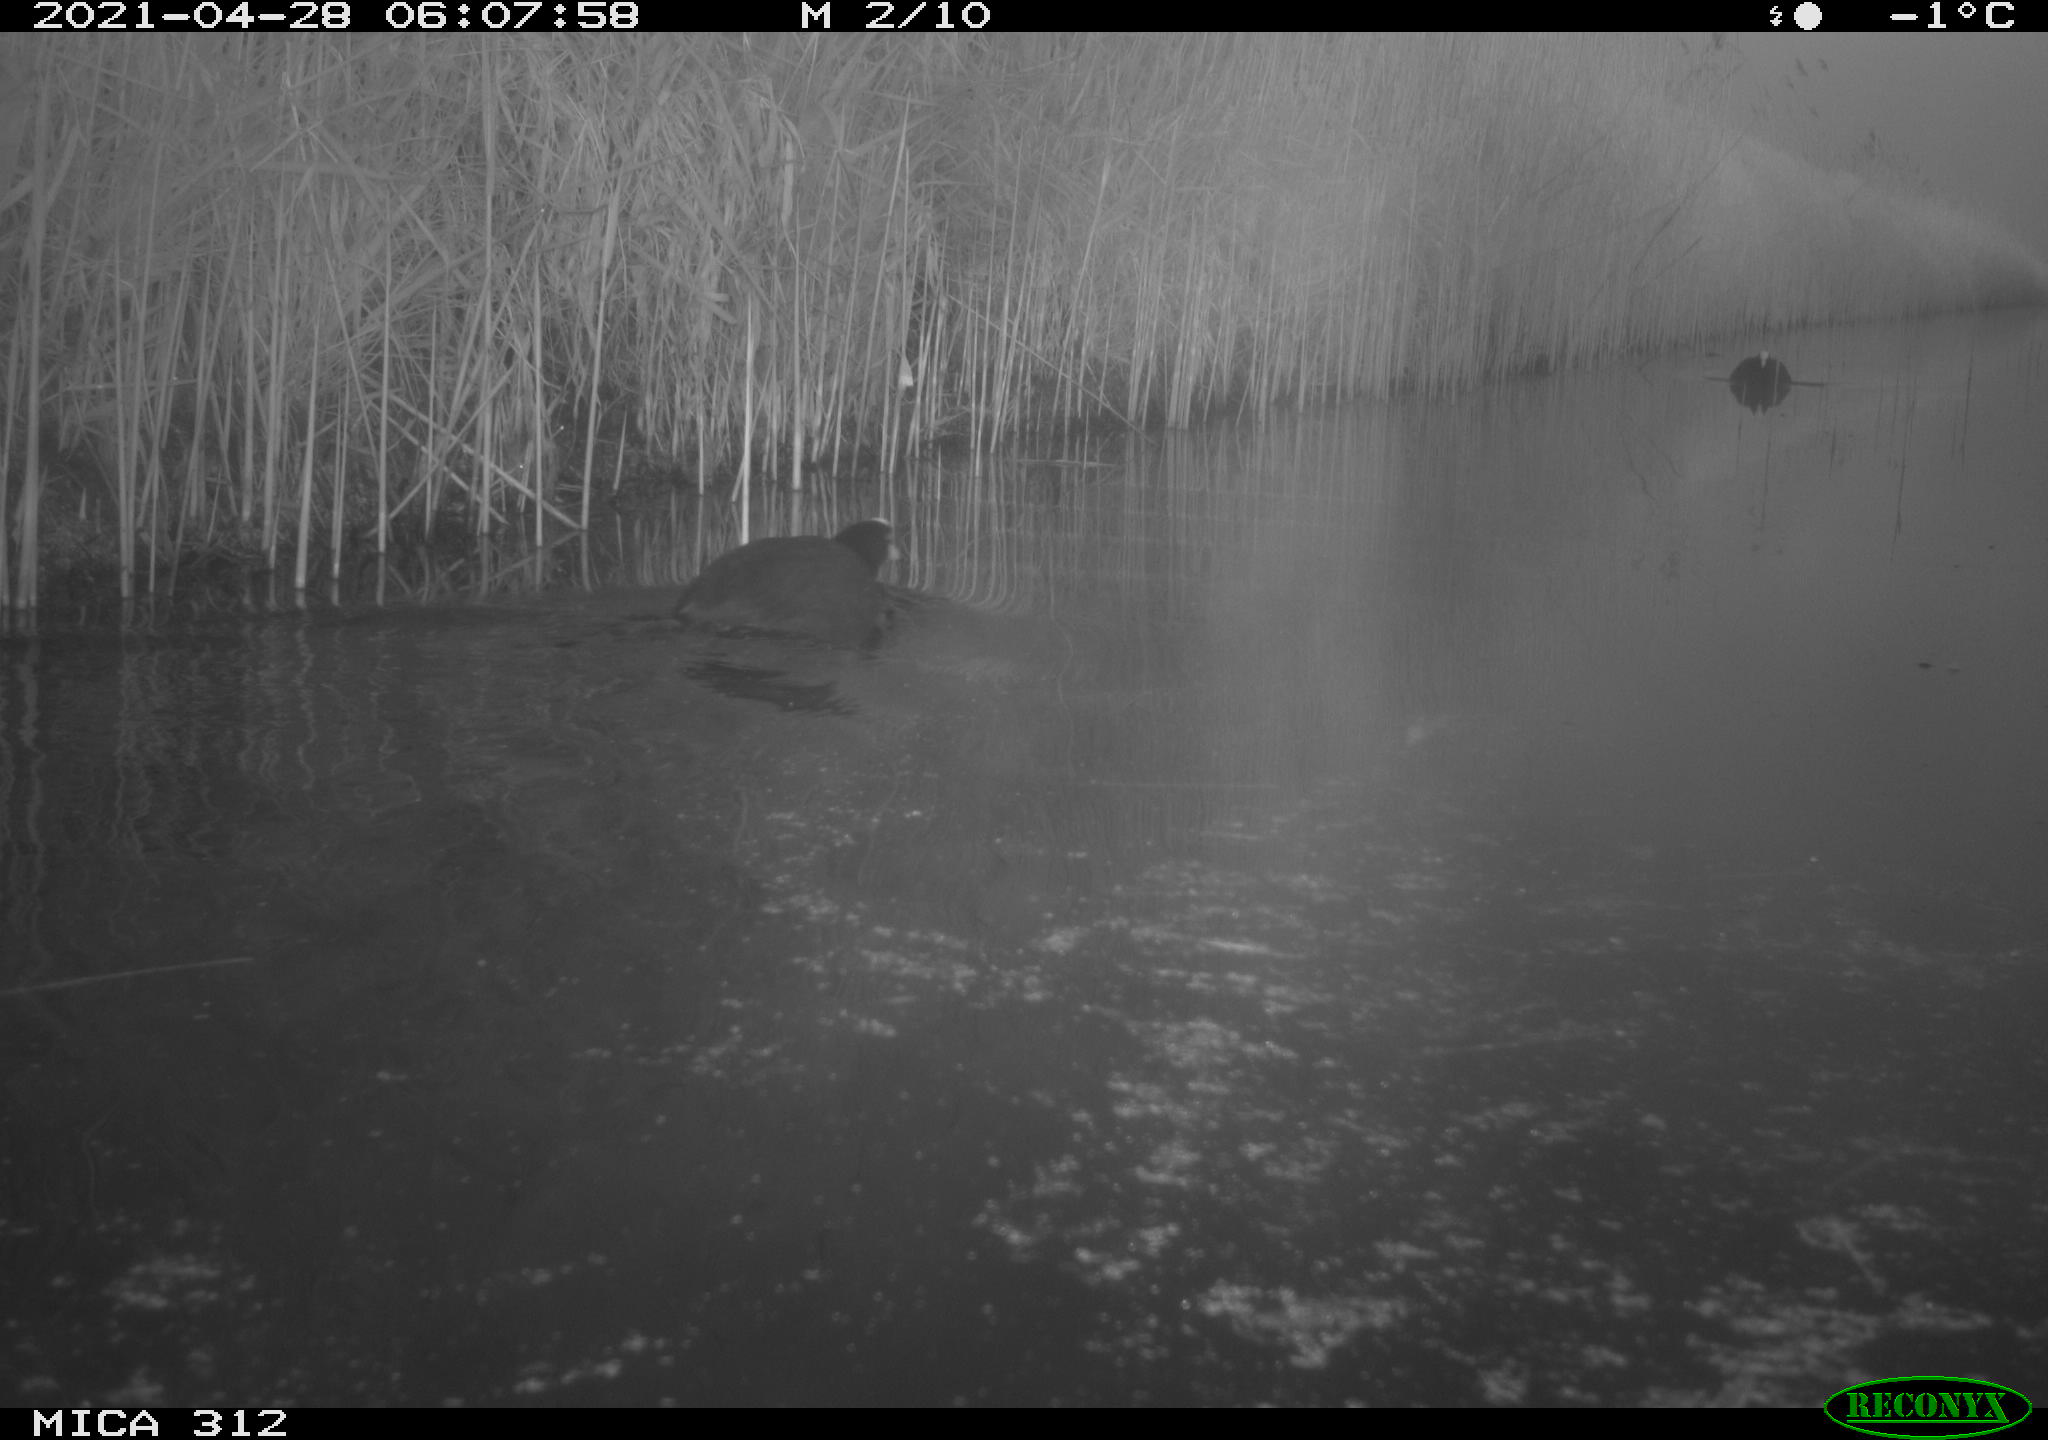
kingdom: Animalia
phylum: Chordata
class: Aves
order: Gruiformes
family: Rallidae
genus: Fulica
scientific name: Fulica atra
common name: Eurasian coot
